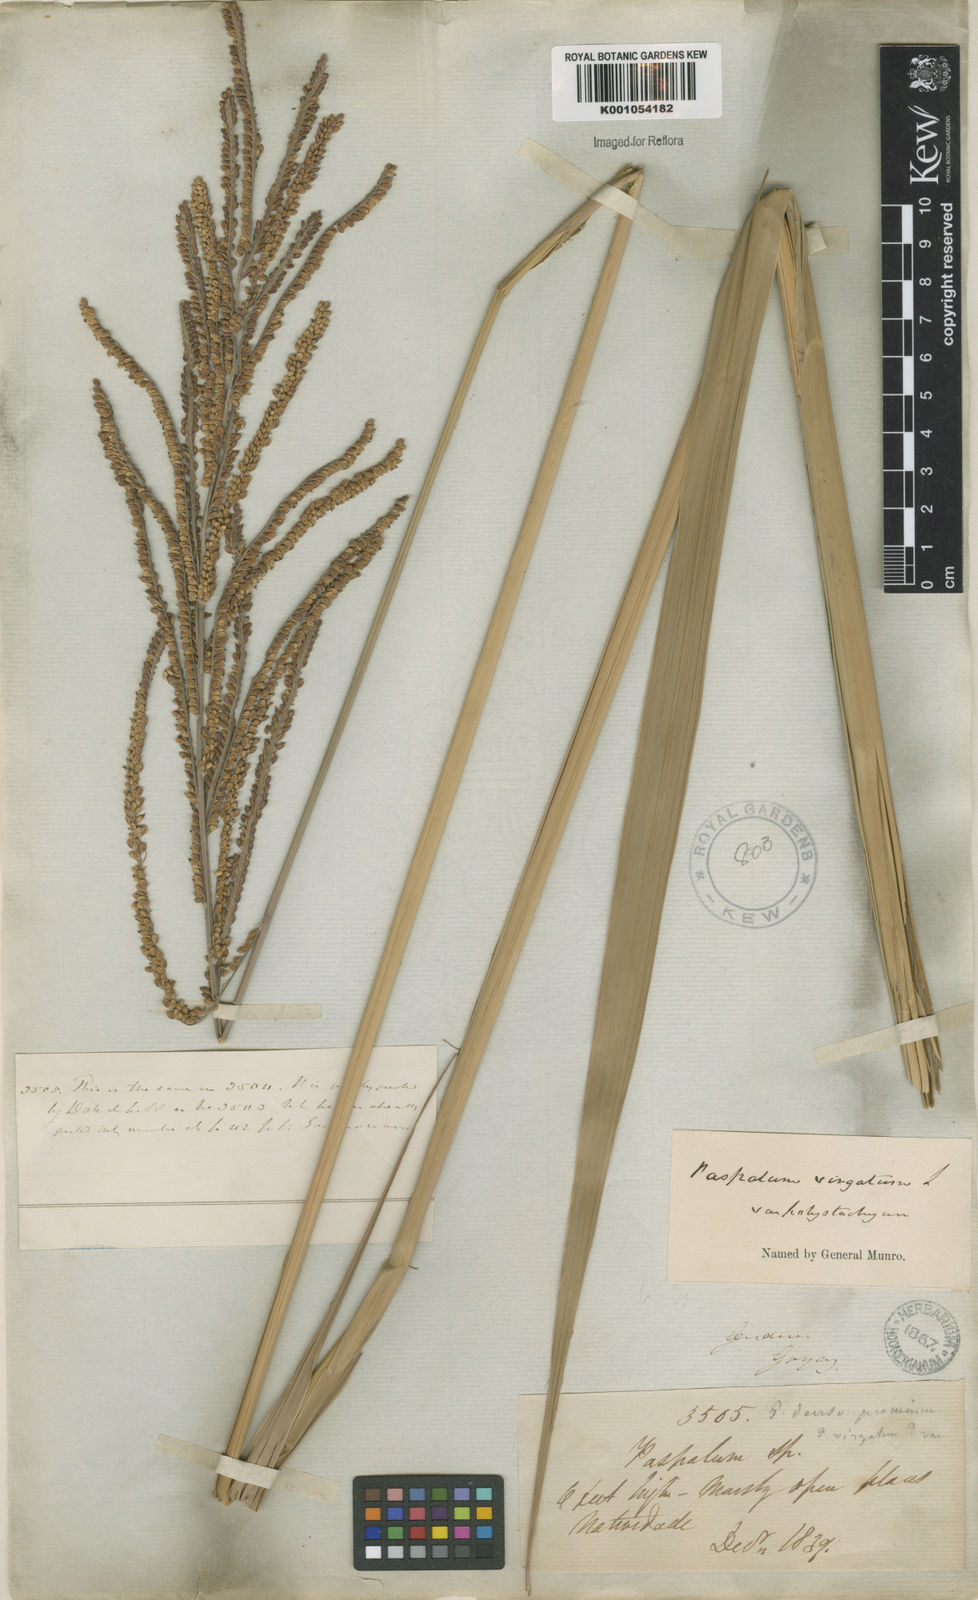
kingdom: Plantae
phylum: Tracheophyta
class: Liliopsida
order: Poales
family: Poaceae
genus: Paspalum
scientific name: Paspalum virgatum
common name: Talquezal
